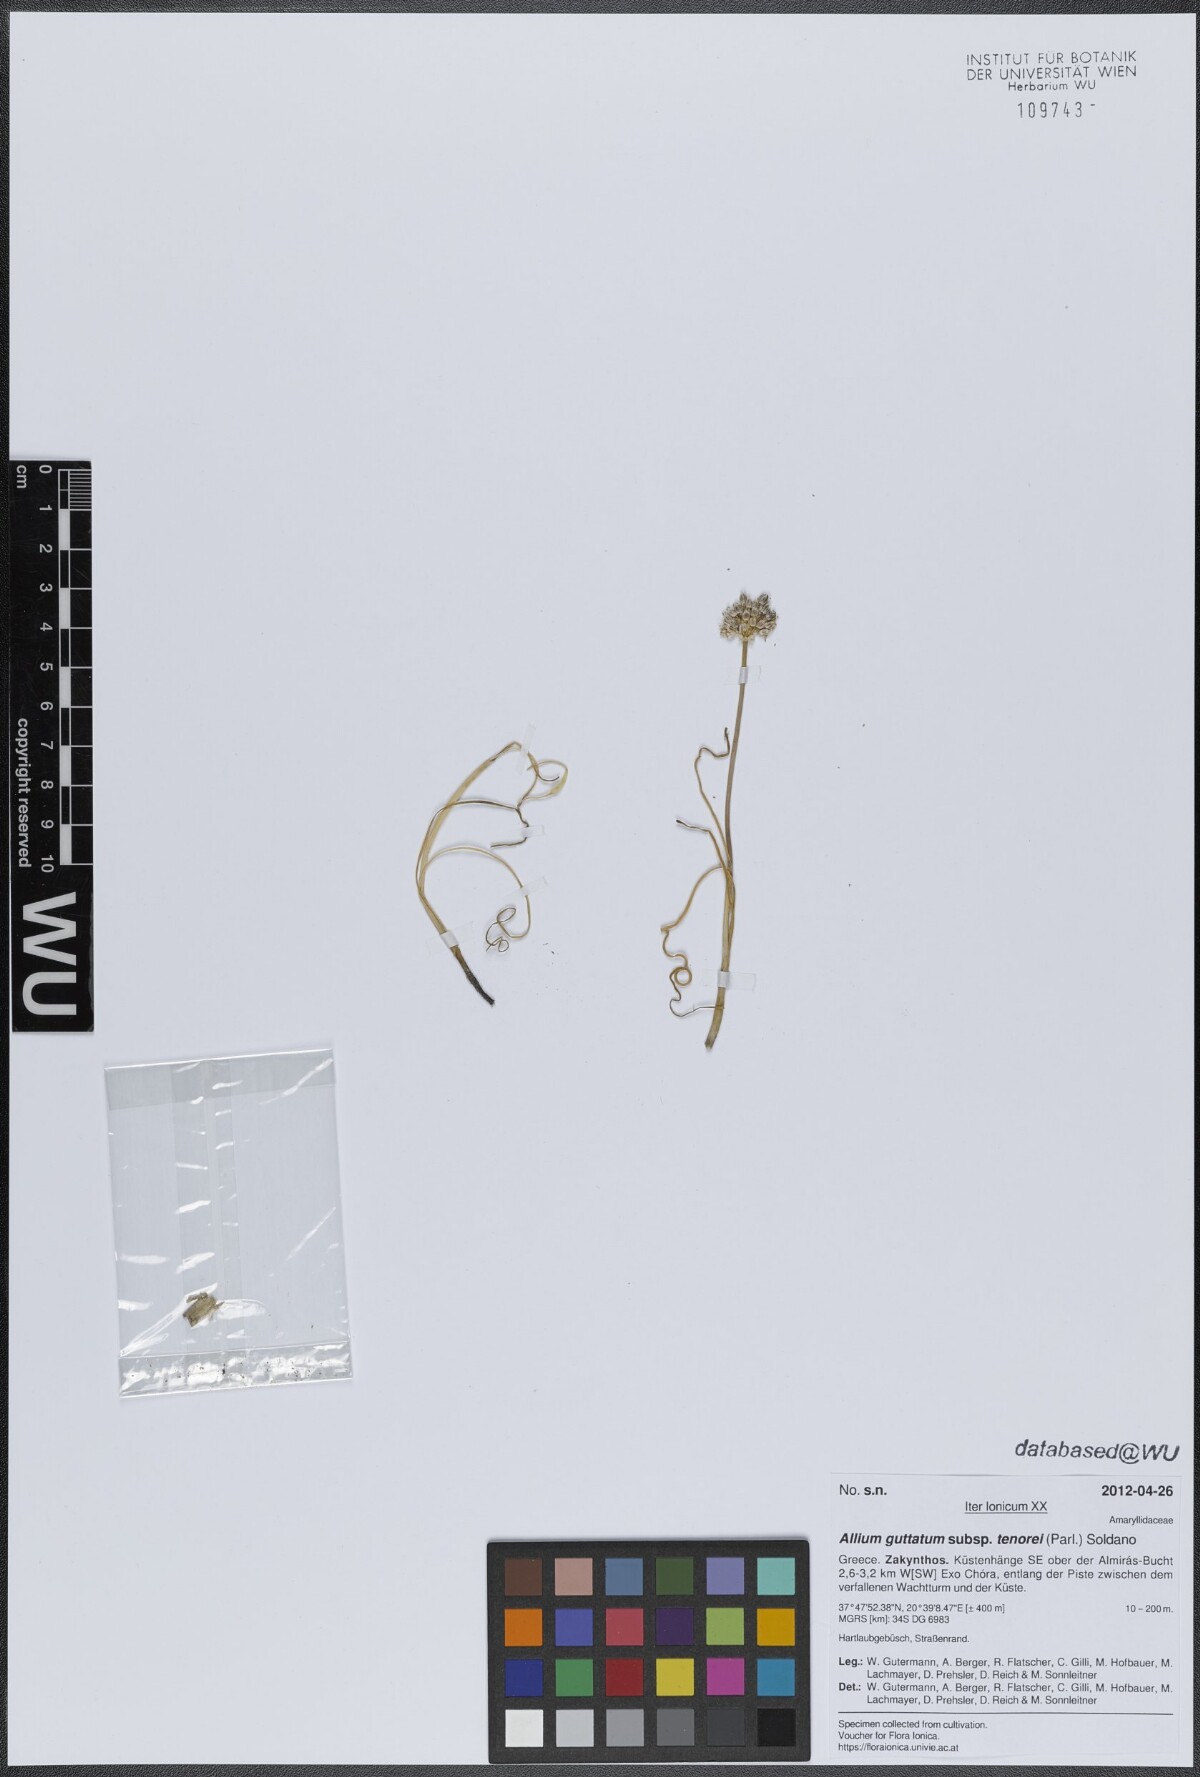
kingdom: Plantae
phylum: Tracheophyta
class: Liliopsida
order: Asparagales
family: Amaryllidaceae
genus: Allium
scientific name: Allium sardoum
